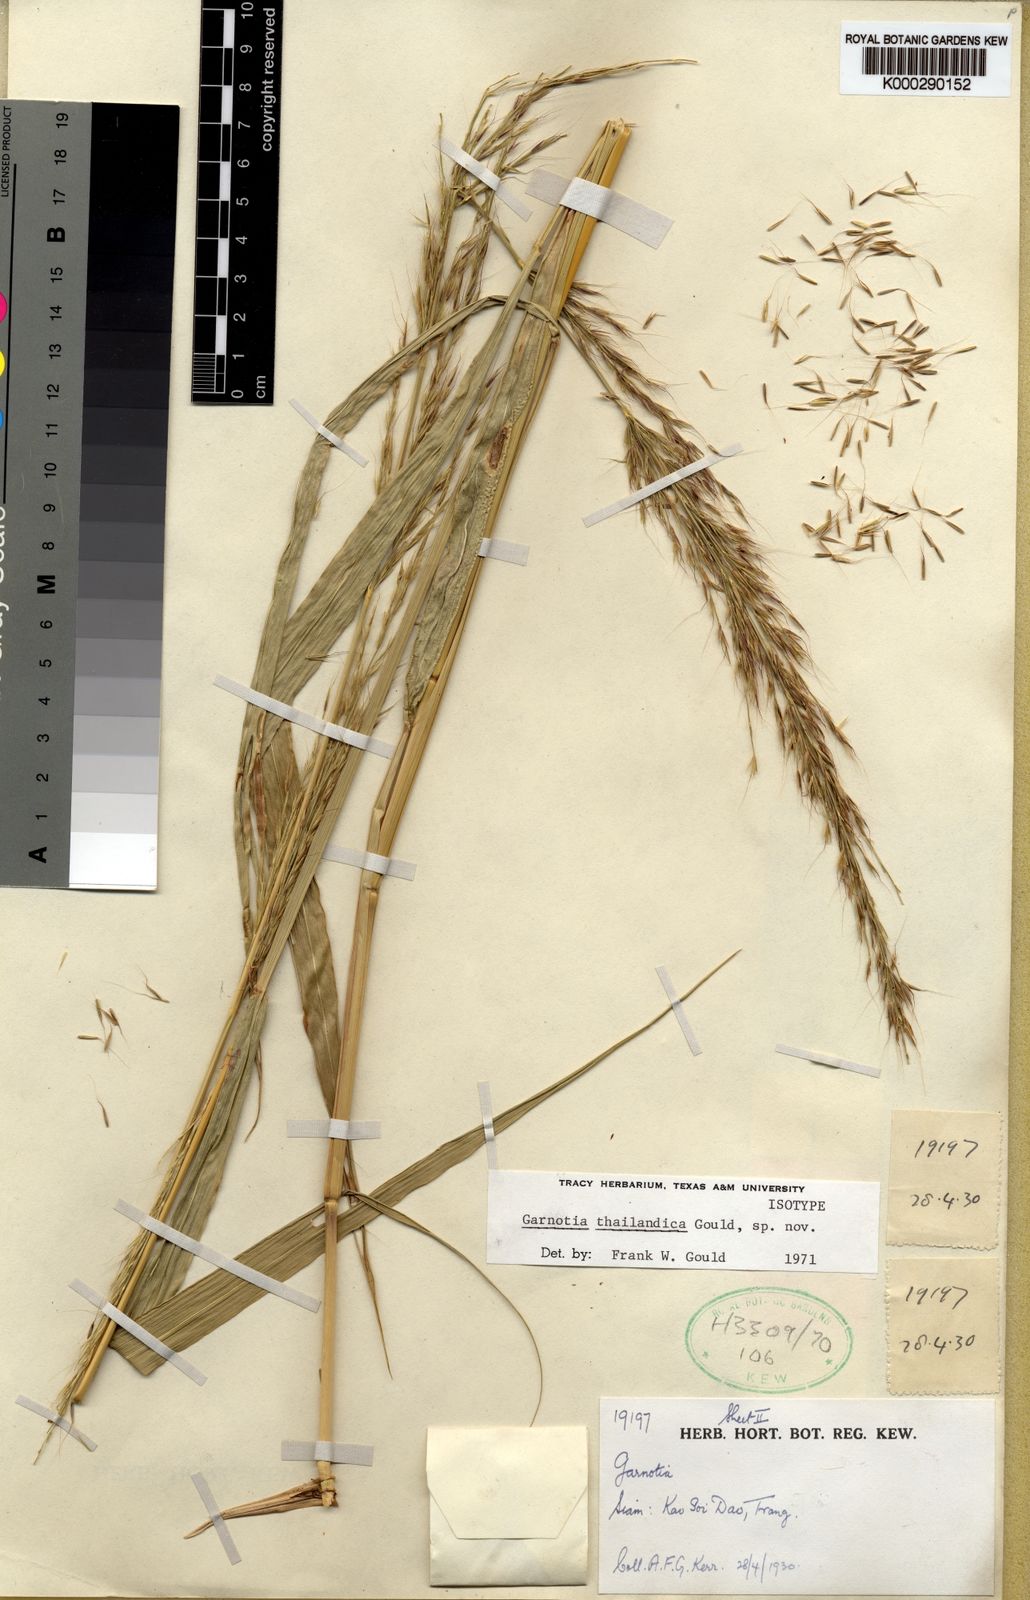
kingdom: Plantae
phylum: Tracheophyta
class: Liliopsida
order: Poales
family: Poaceae
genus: Garnotia
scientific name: Garnotia thailandica
